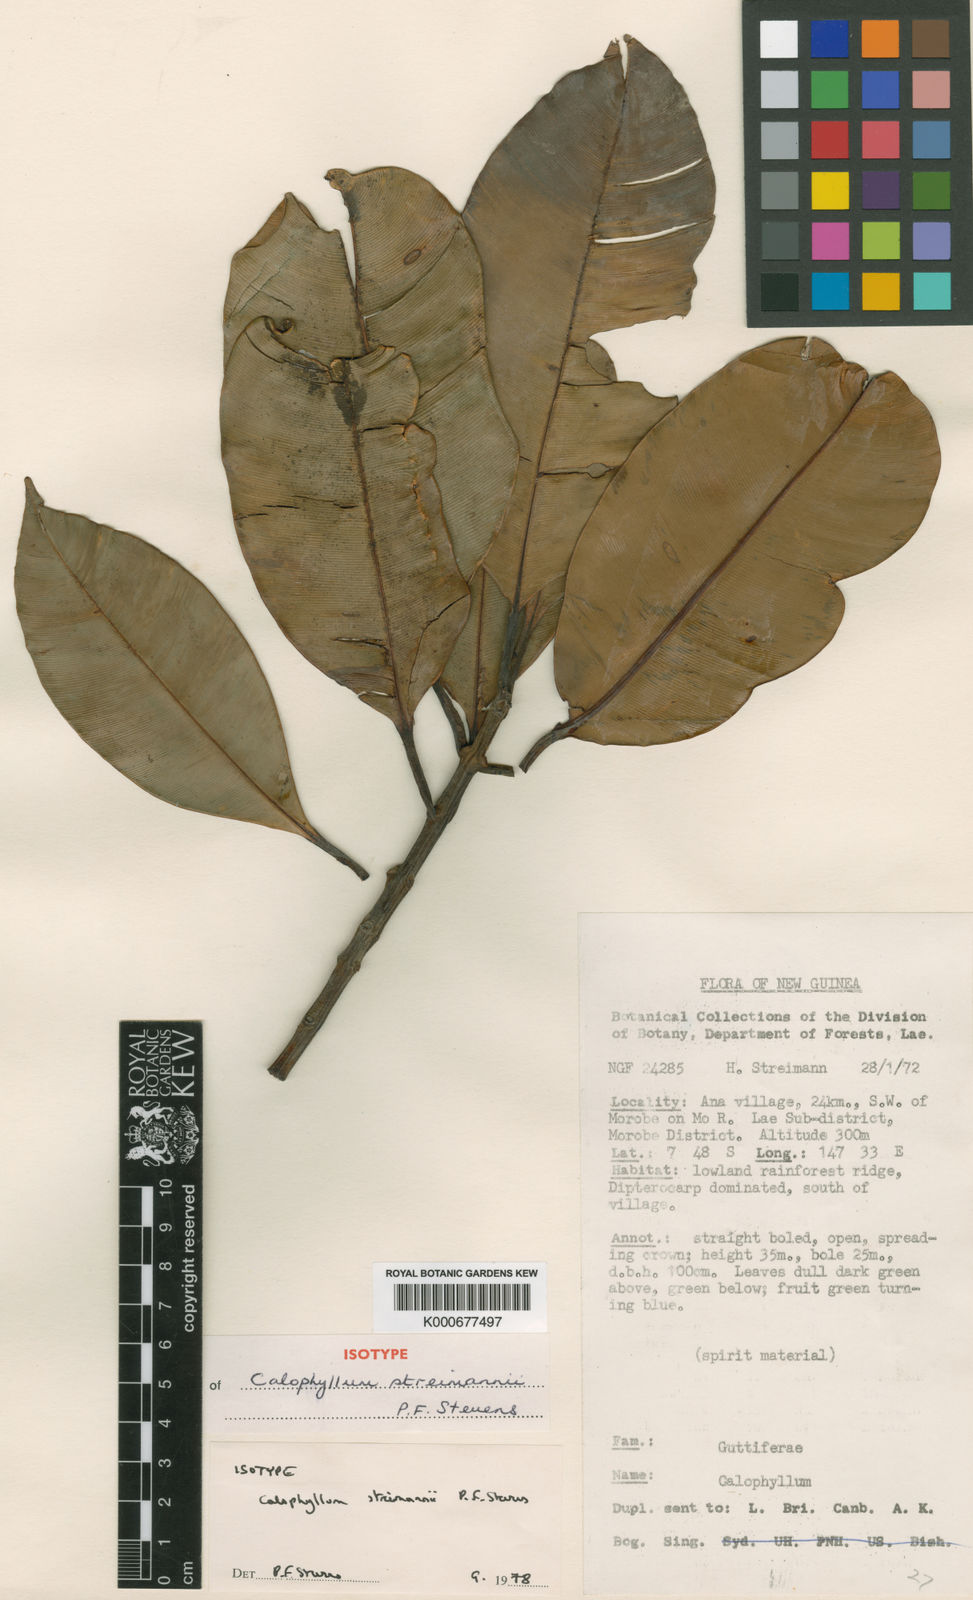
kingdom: Plantae
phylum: Tracheophyta
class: Magnoliopsida
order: Malpighiales
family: Calophyllaceae
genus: Calophyllum
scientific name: Calophyllum streimannii
